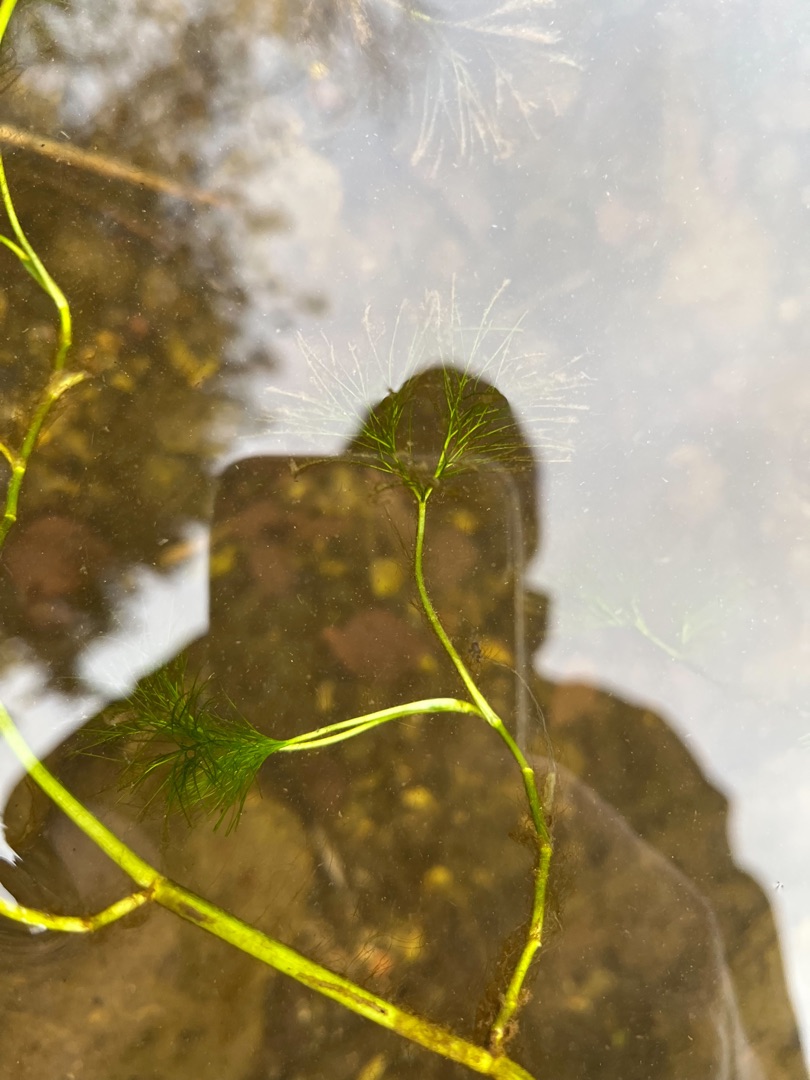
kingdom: Plantae
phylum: Tracheophyta
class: Magnoliopsida
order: Ranunculales
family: Ranunculaceae
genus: Ranunculus
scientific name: Ranunculus
